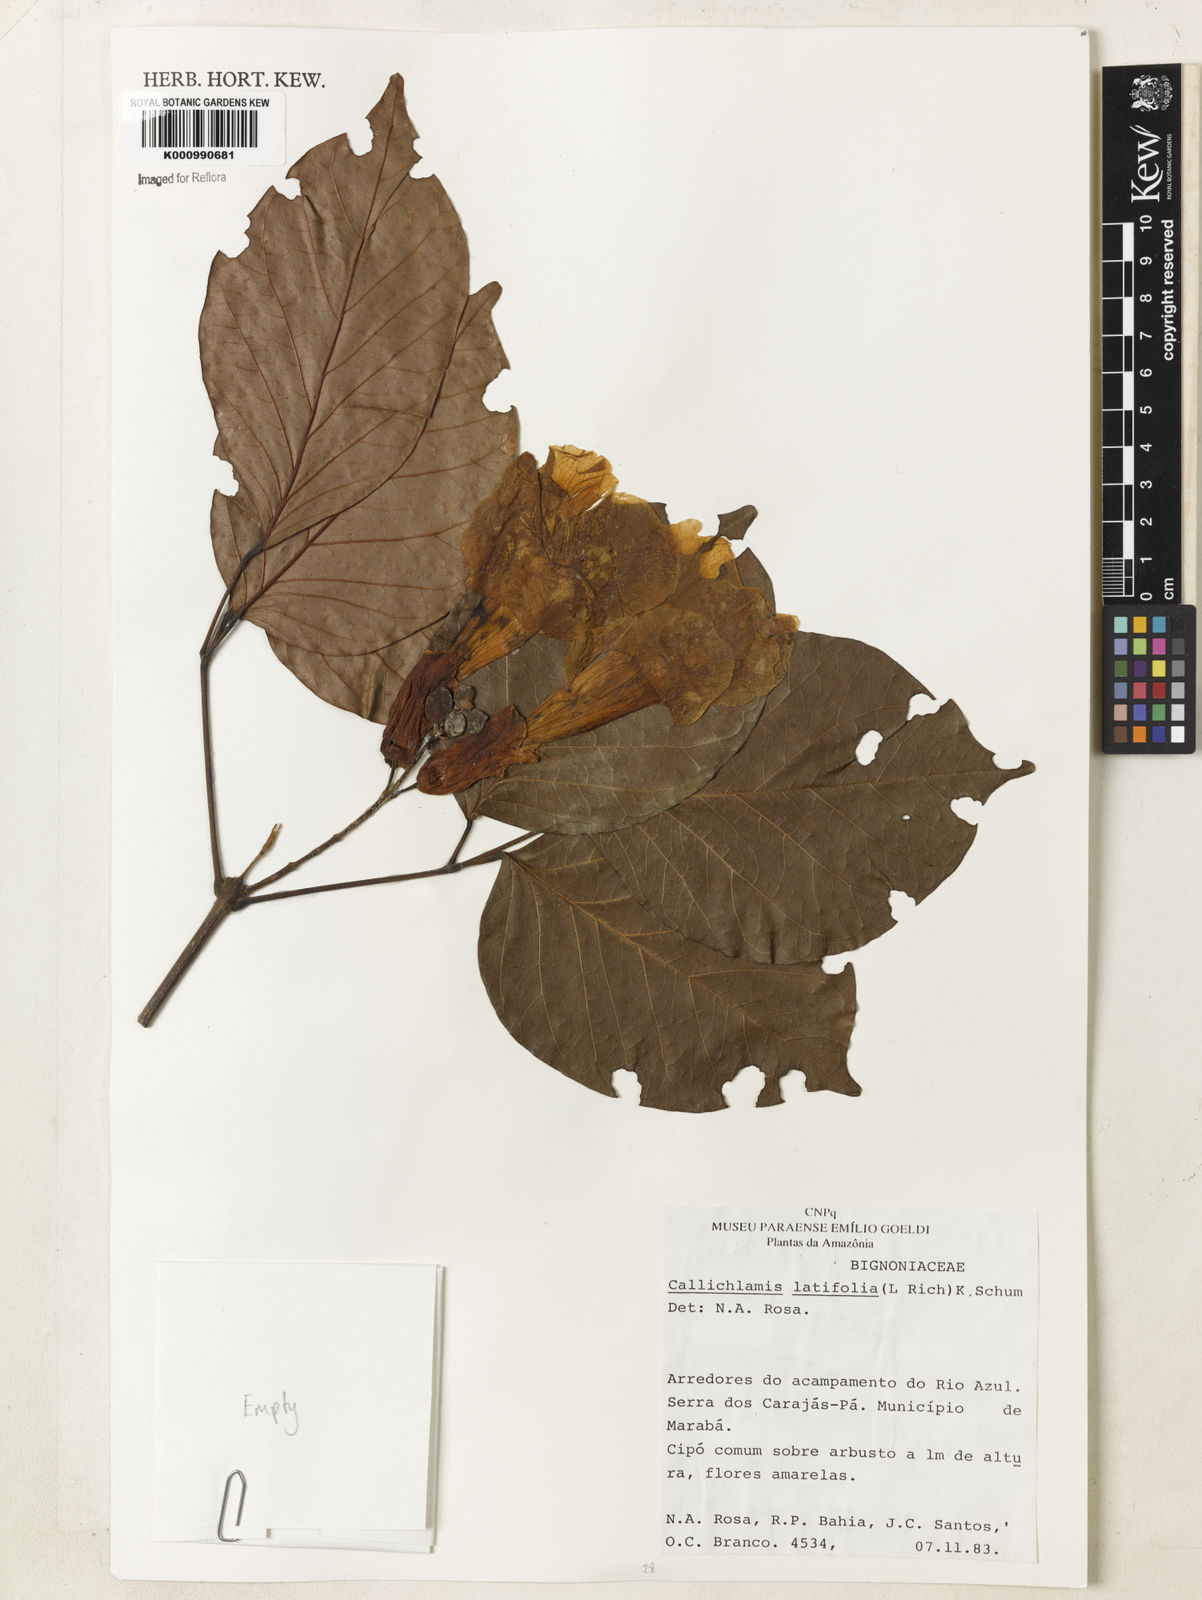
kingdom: Plantae
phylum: Tracheophyta
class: Magnoliopsida
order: Lamiales
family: Bignoniaceae
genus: Callichlamys
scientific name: Callichlamys latifolia
